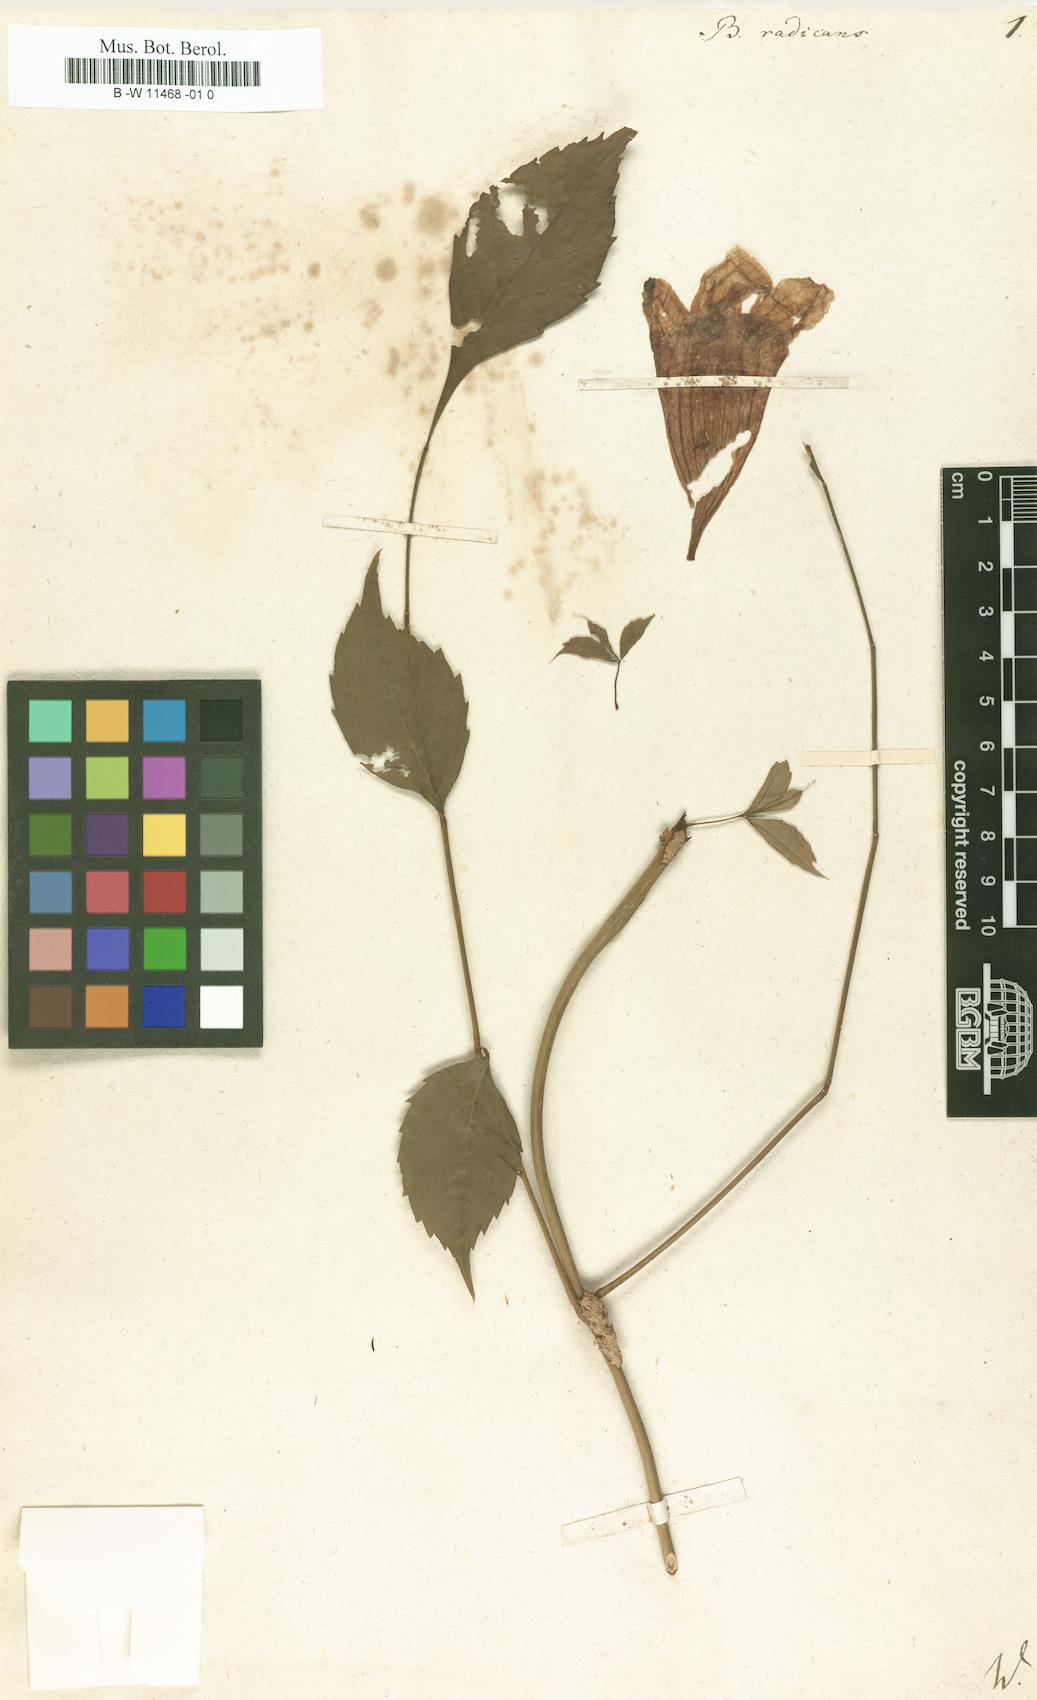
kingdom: Plantae
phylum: Tracheophyta
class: Magnoliopsida
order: Lamiales
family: Bignoniaceae
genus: Campsis
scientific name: Campsis radicans
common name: Trumpet-creeper
